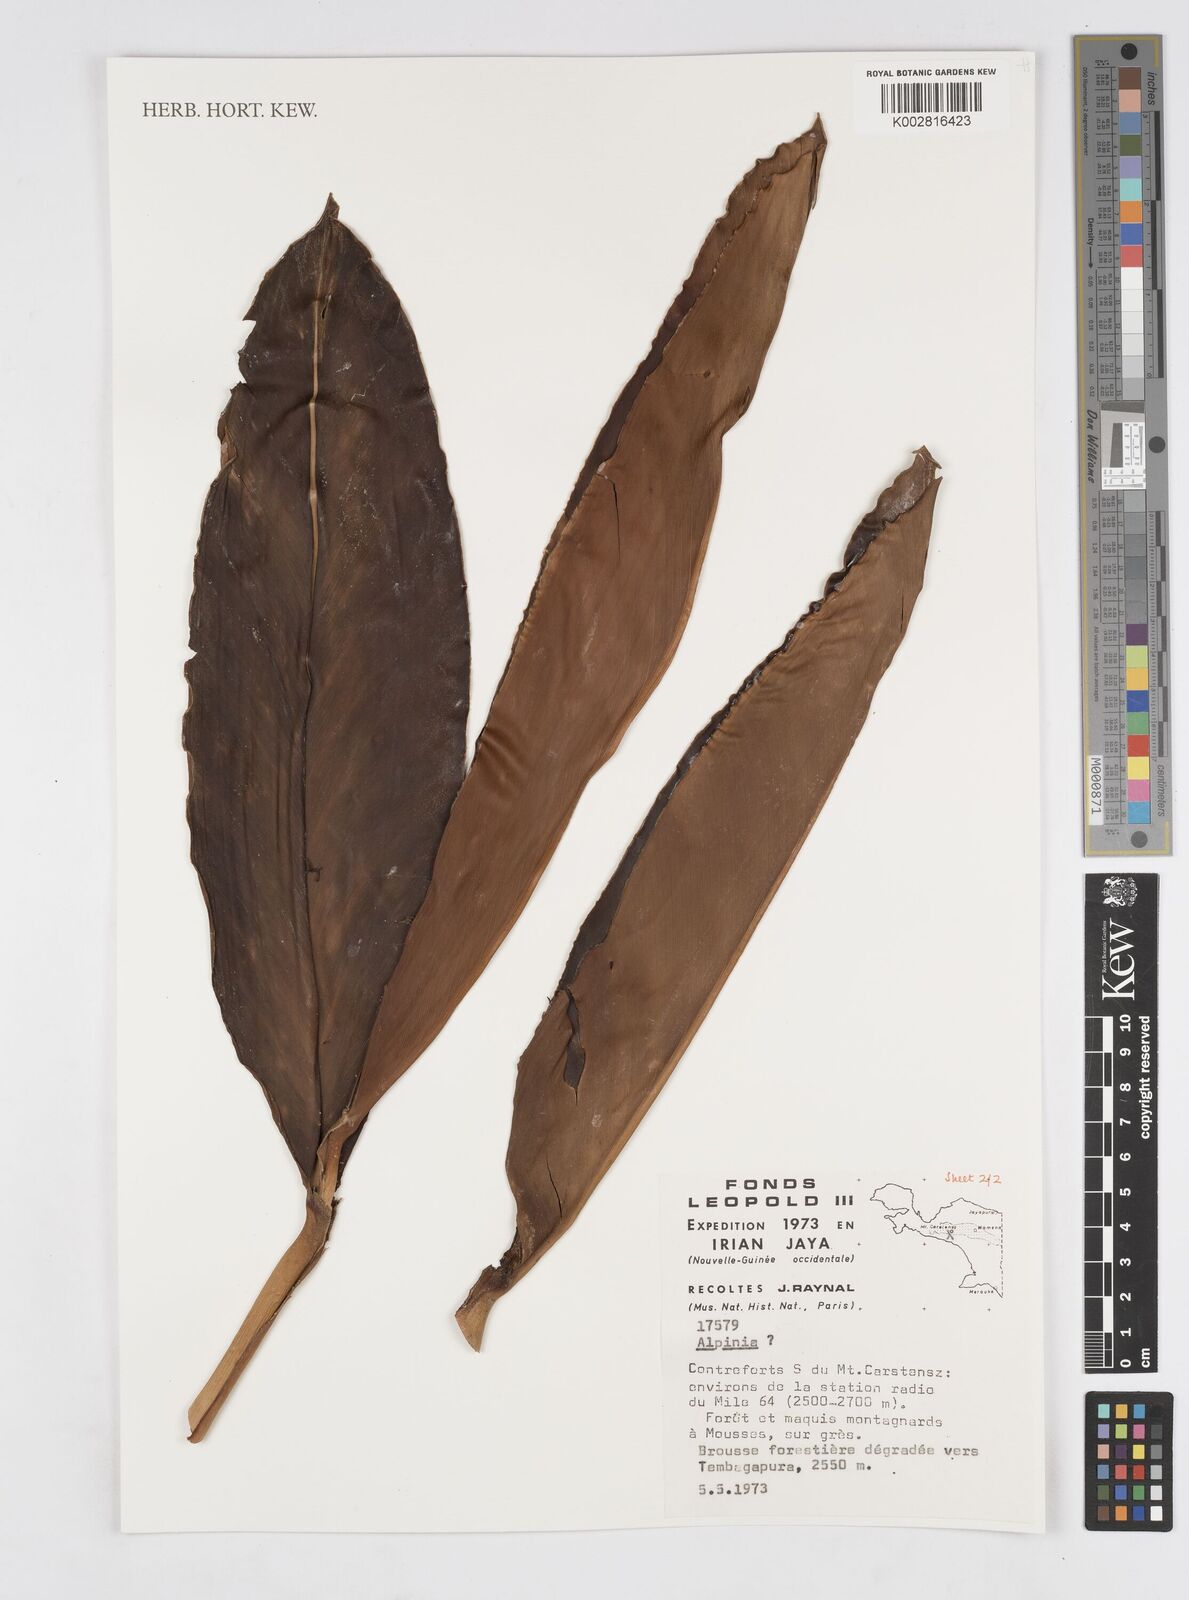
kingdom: Plantae
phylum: Tracheophyta
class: Liliopsida
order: Zingiberales
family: Zingiberaceae
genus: Alpinia
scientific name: Alpinia
